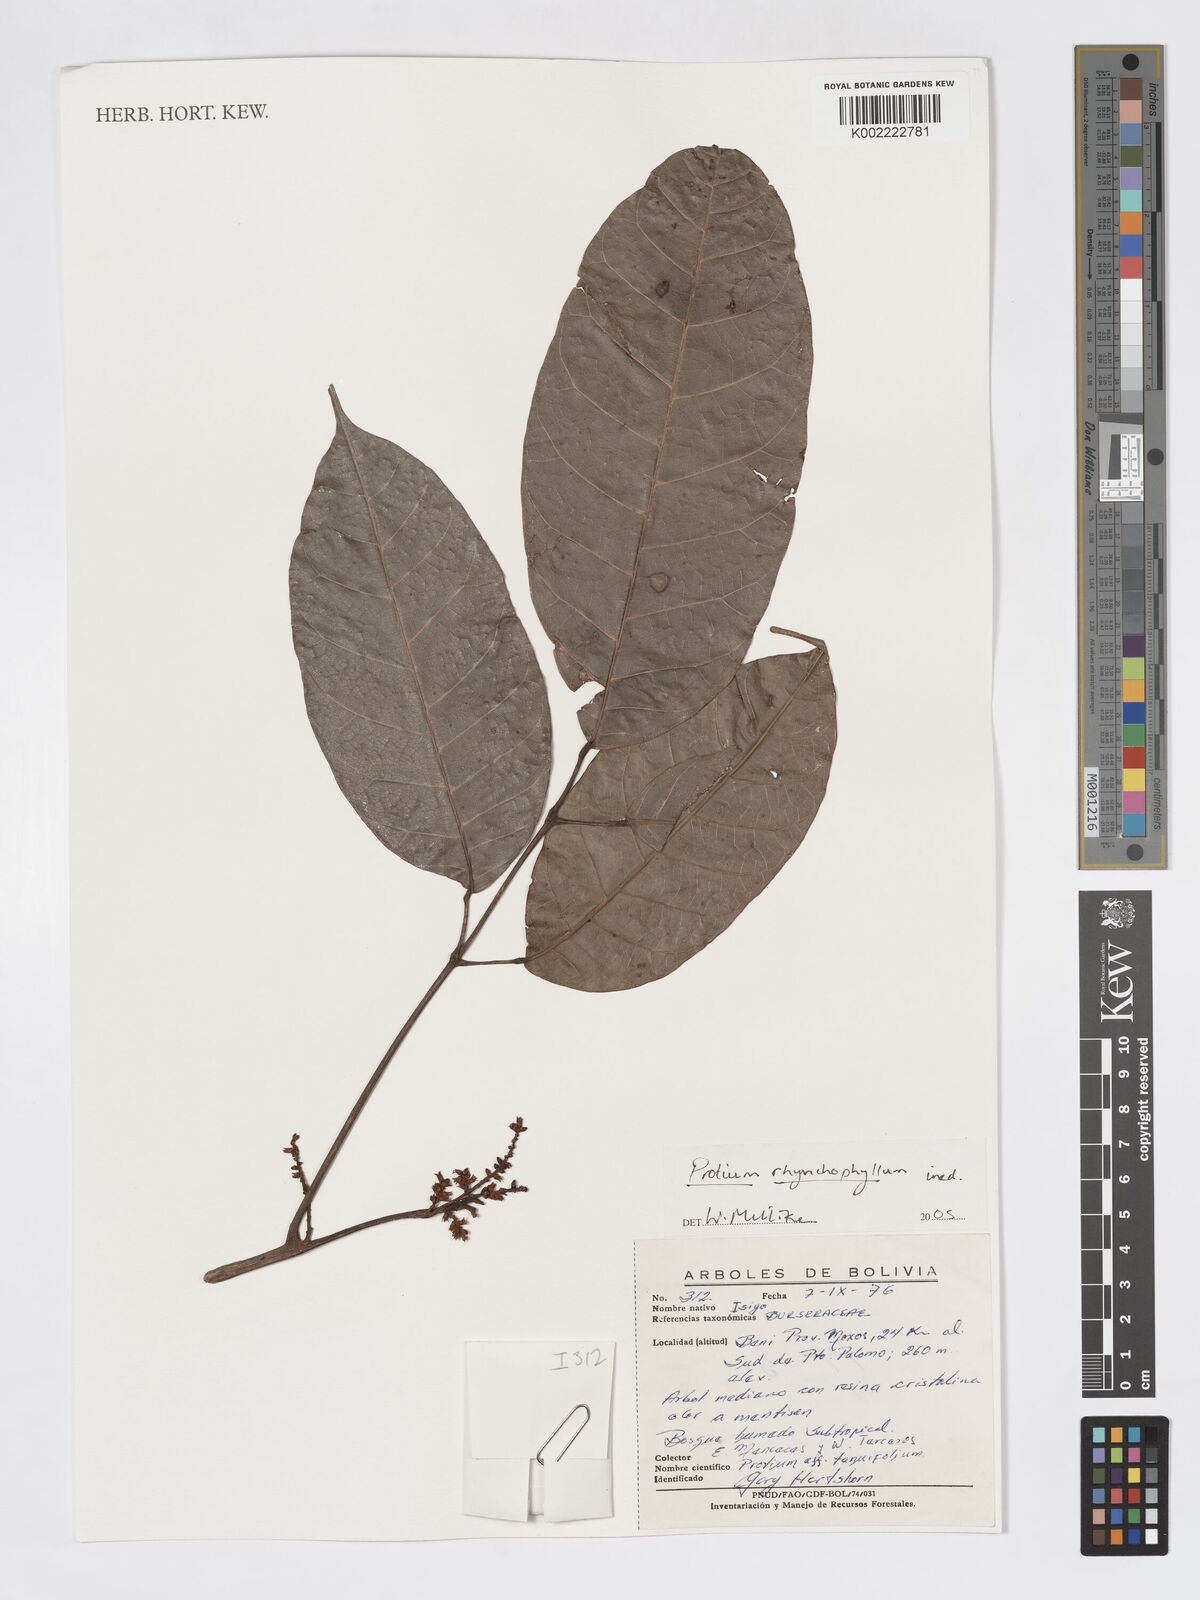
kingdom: Plantae
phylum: Tracheophyta
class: Magnoliopsida
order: Sapindales
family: Burseraceae
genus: Protium
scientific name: Protium rhynchophyllum
